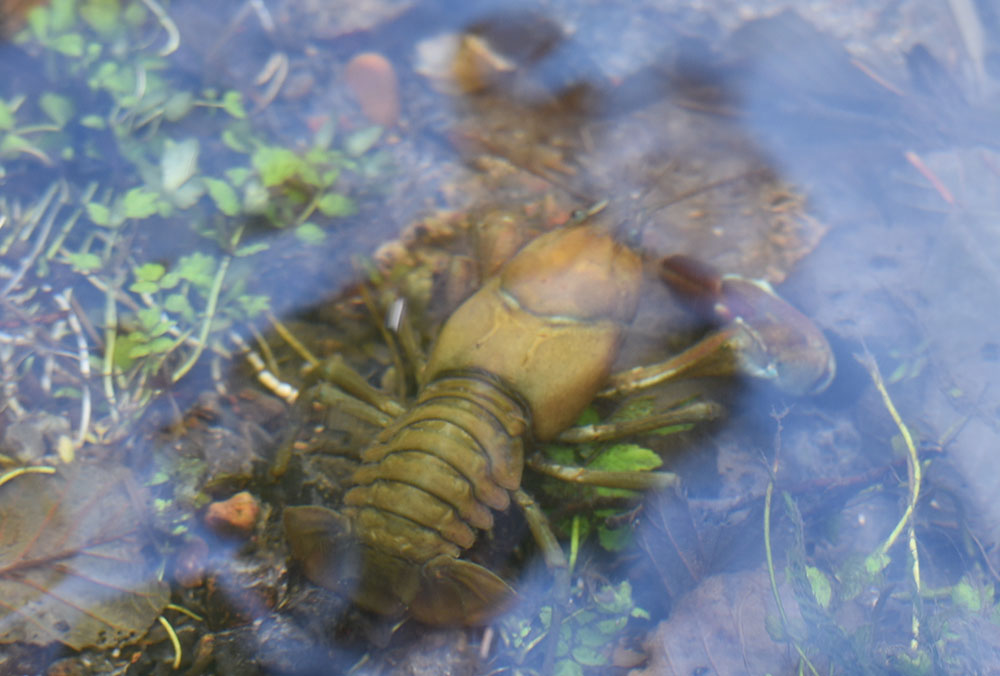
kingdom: Animalia
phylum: Arthropoda
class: Malacostraca
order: Decapoda
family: Astacidae
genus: Pacifastacus
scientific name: Pacifastacus leniusculus
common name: Signal crayfish
